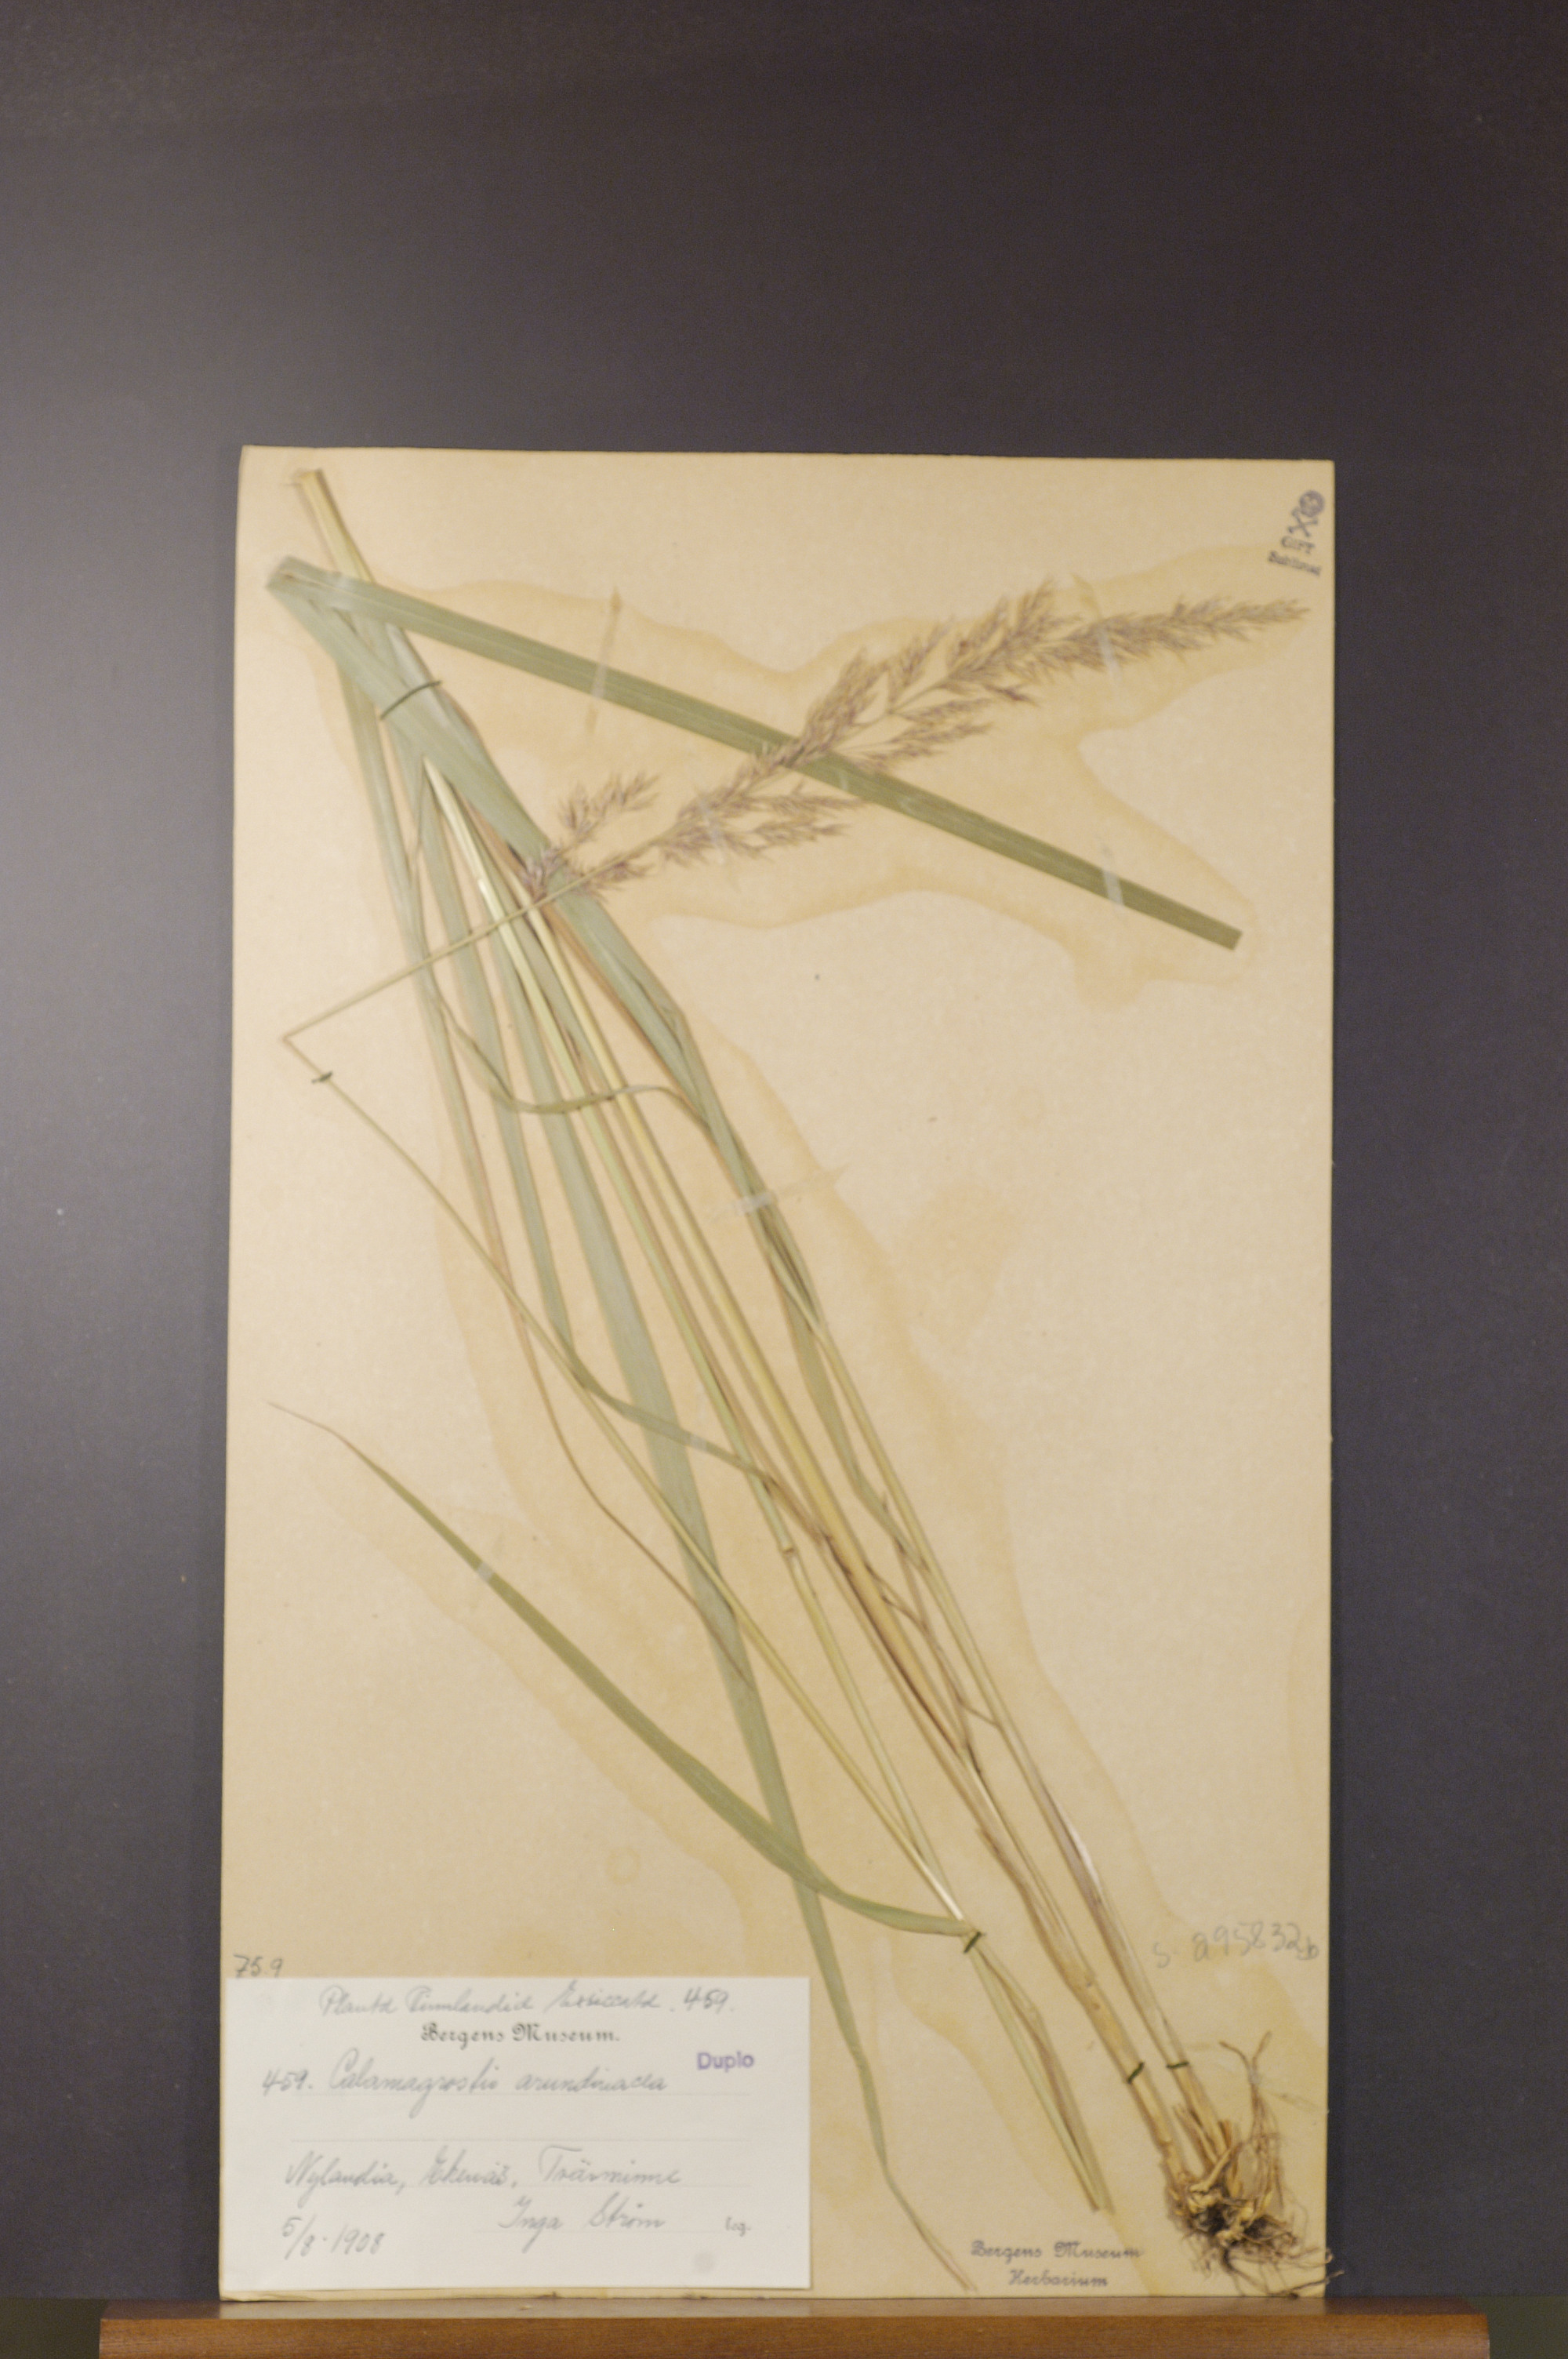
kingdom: Plantae
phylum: Tracheophyta
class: Liliopsida
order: Poales
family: Poaceae
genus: Calamagrostis
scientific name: Calamagrostis arundinacea
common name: Metskastik
